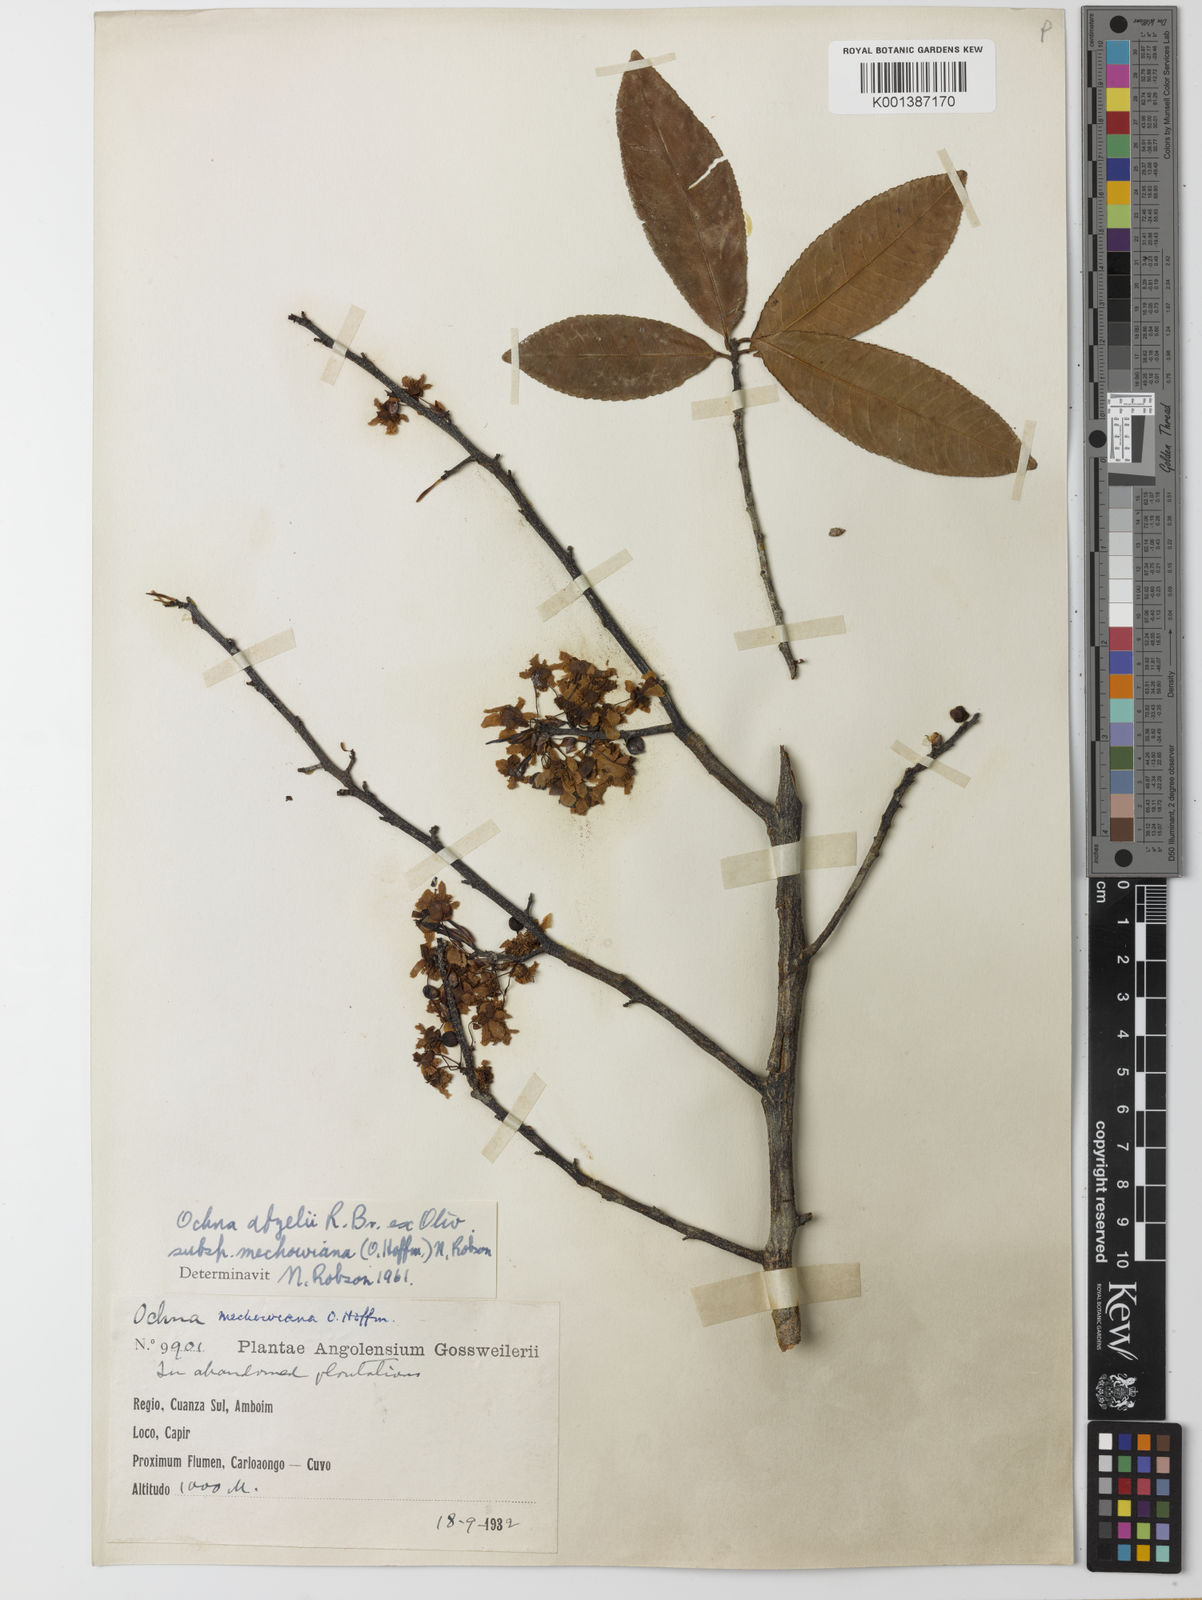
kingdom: Plantae
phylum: Tracheophyta
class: Magnoliopsida
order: Malpighiales
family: Ochnaceae
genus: Ochna
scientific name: Ochna
